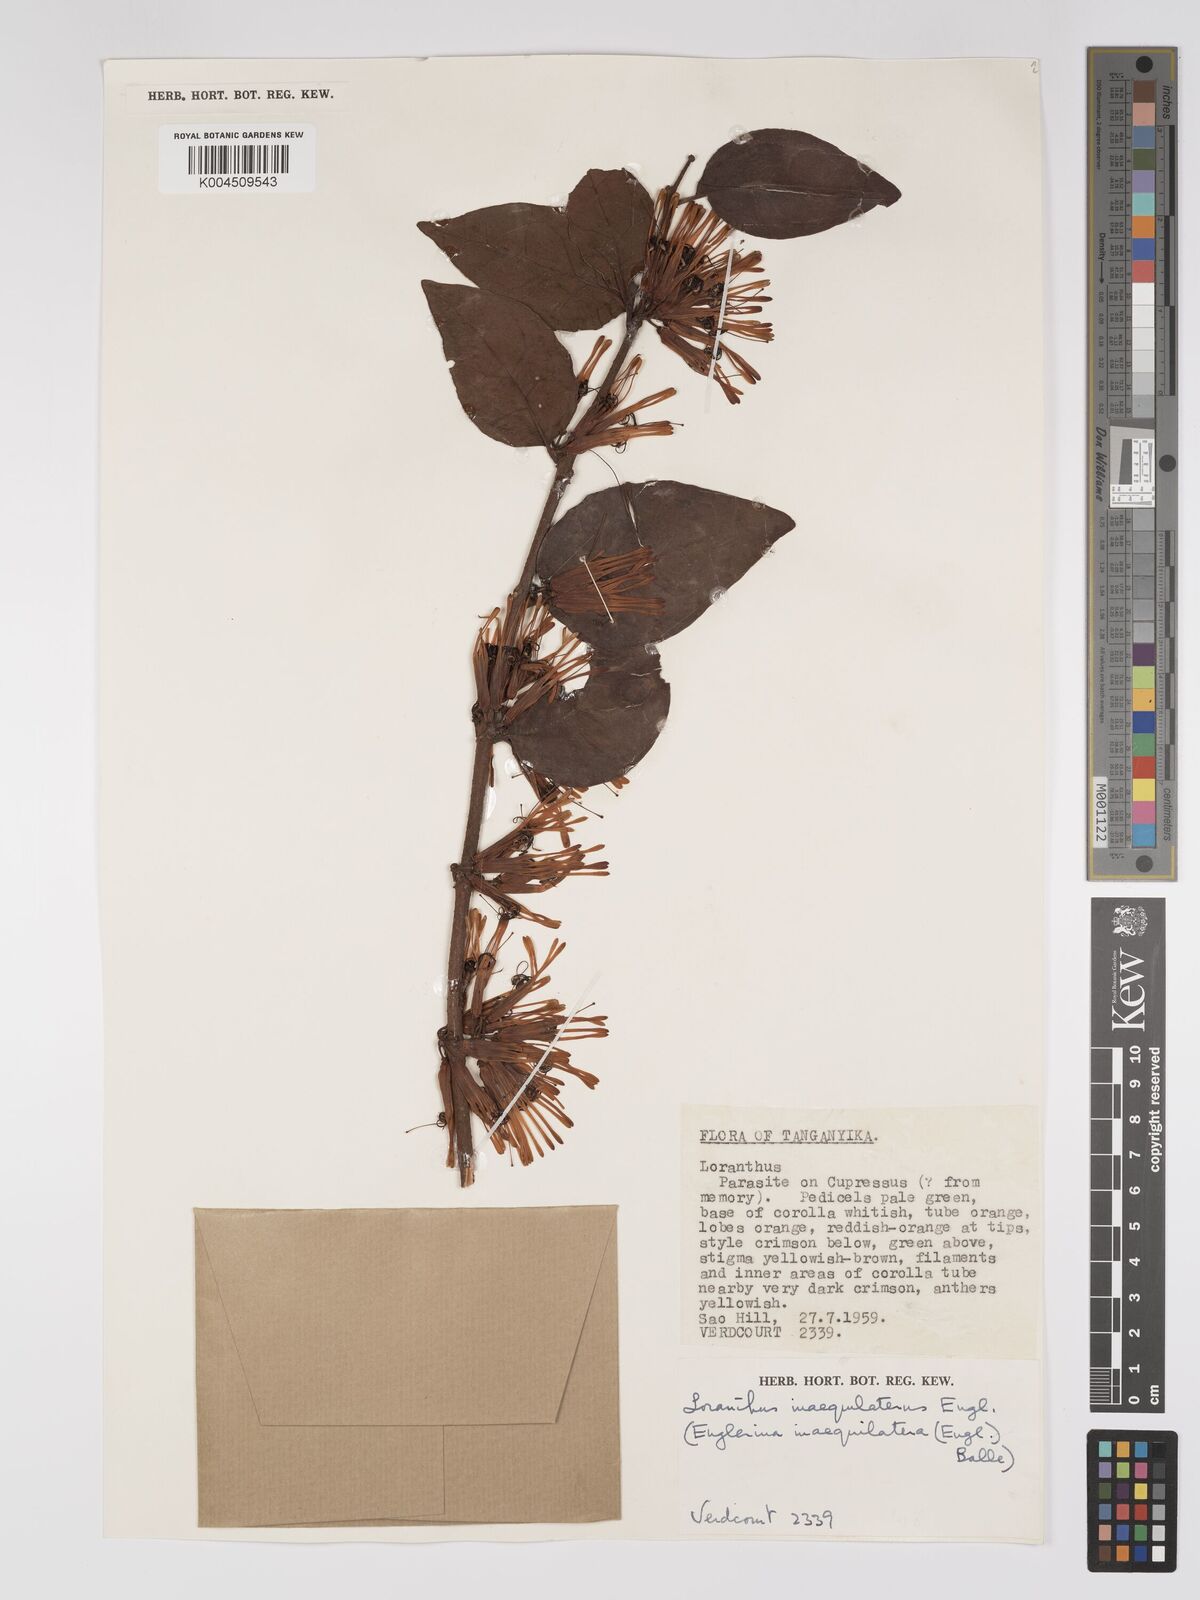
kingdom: Plantae
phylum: Tracheophyta
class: Magnoliopsida
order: Santalales
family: Loranthaceae
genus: Englerina
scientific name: Englerina inaequilatera
